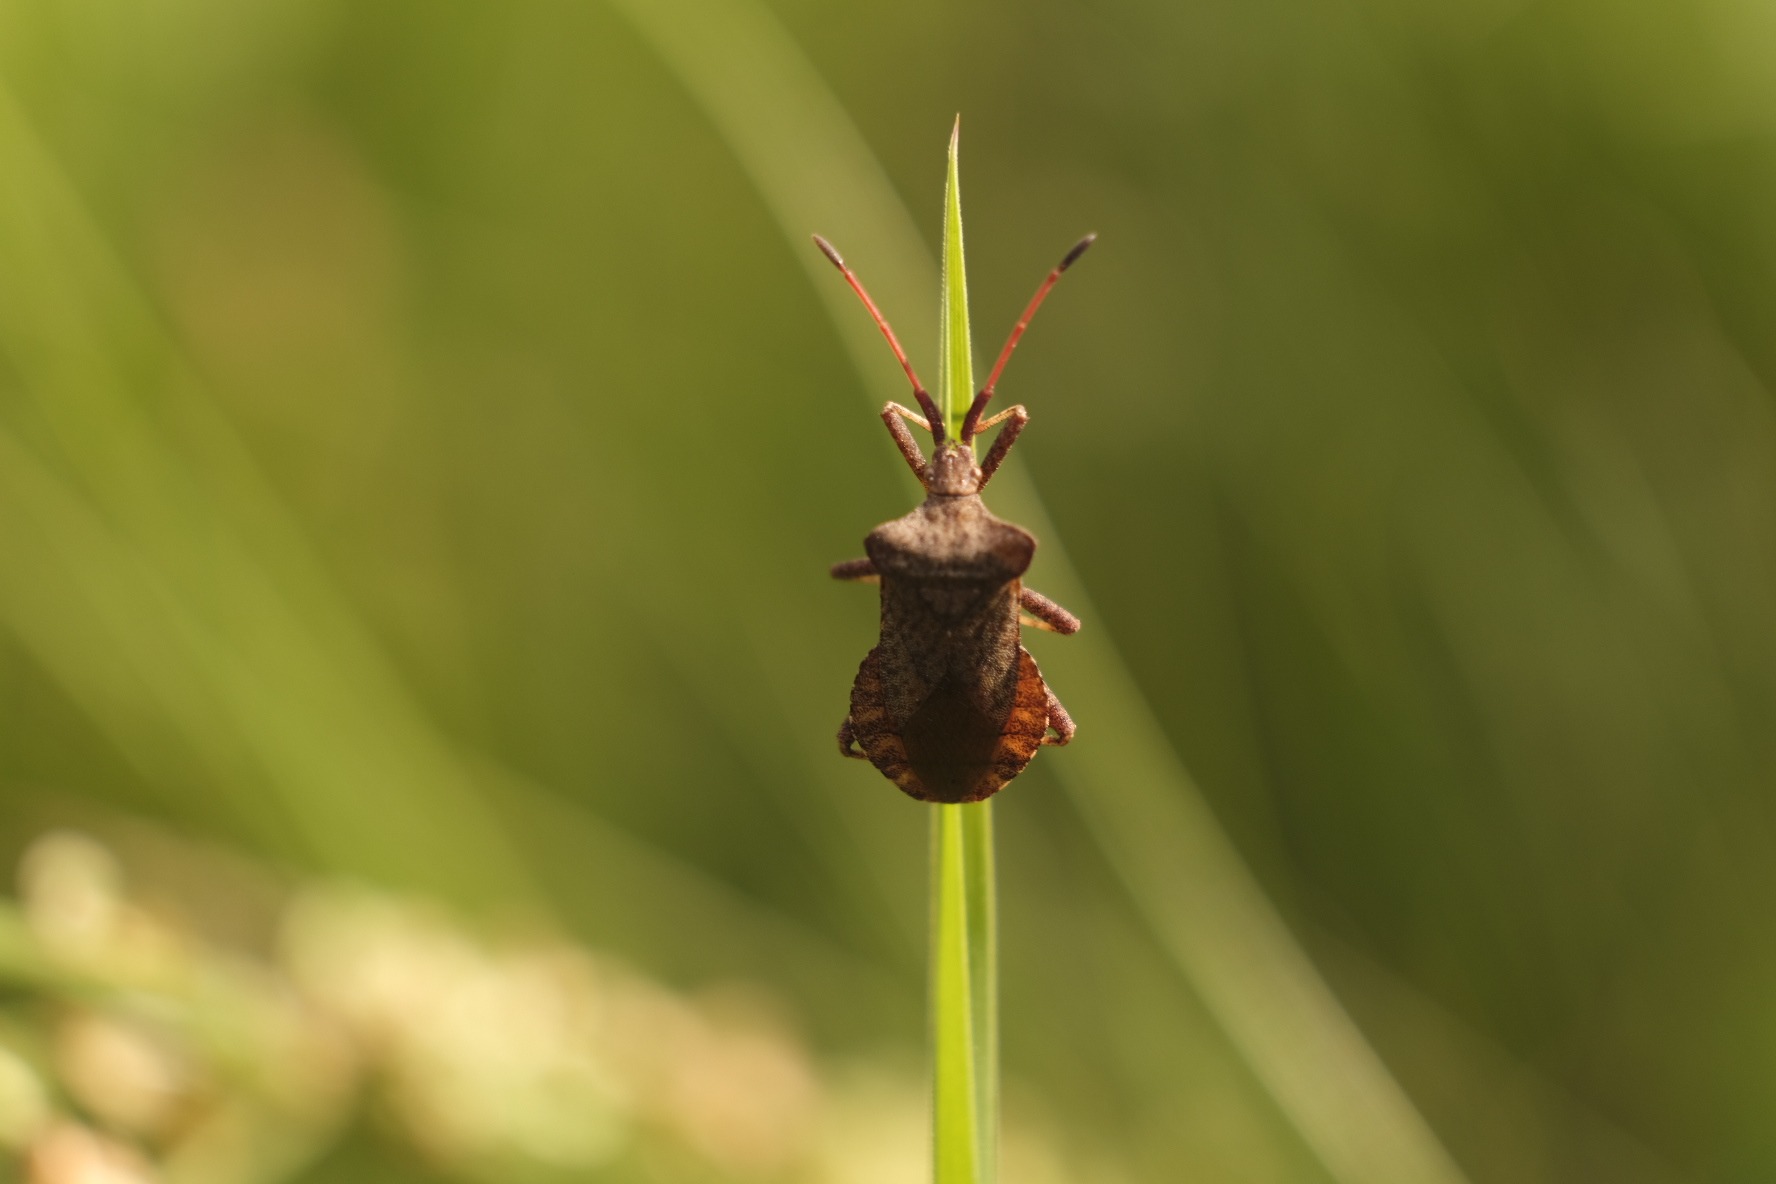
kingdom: Animalia
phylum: Arthropoda
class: Insecta
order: Hemiptera
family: Coreidae
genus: Coreus
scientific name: Coreus marginatus
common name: Skræppetæge
